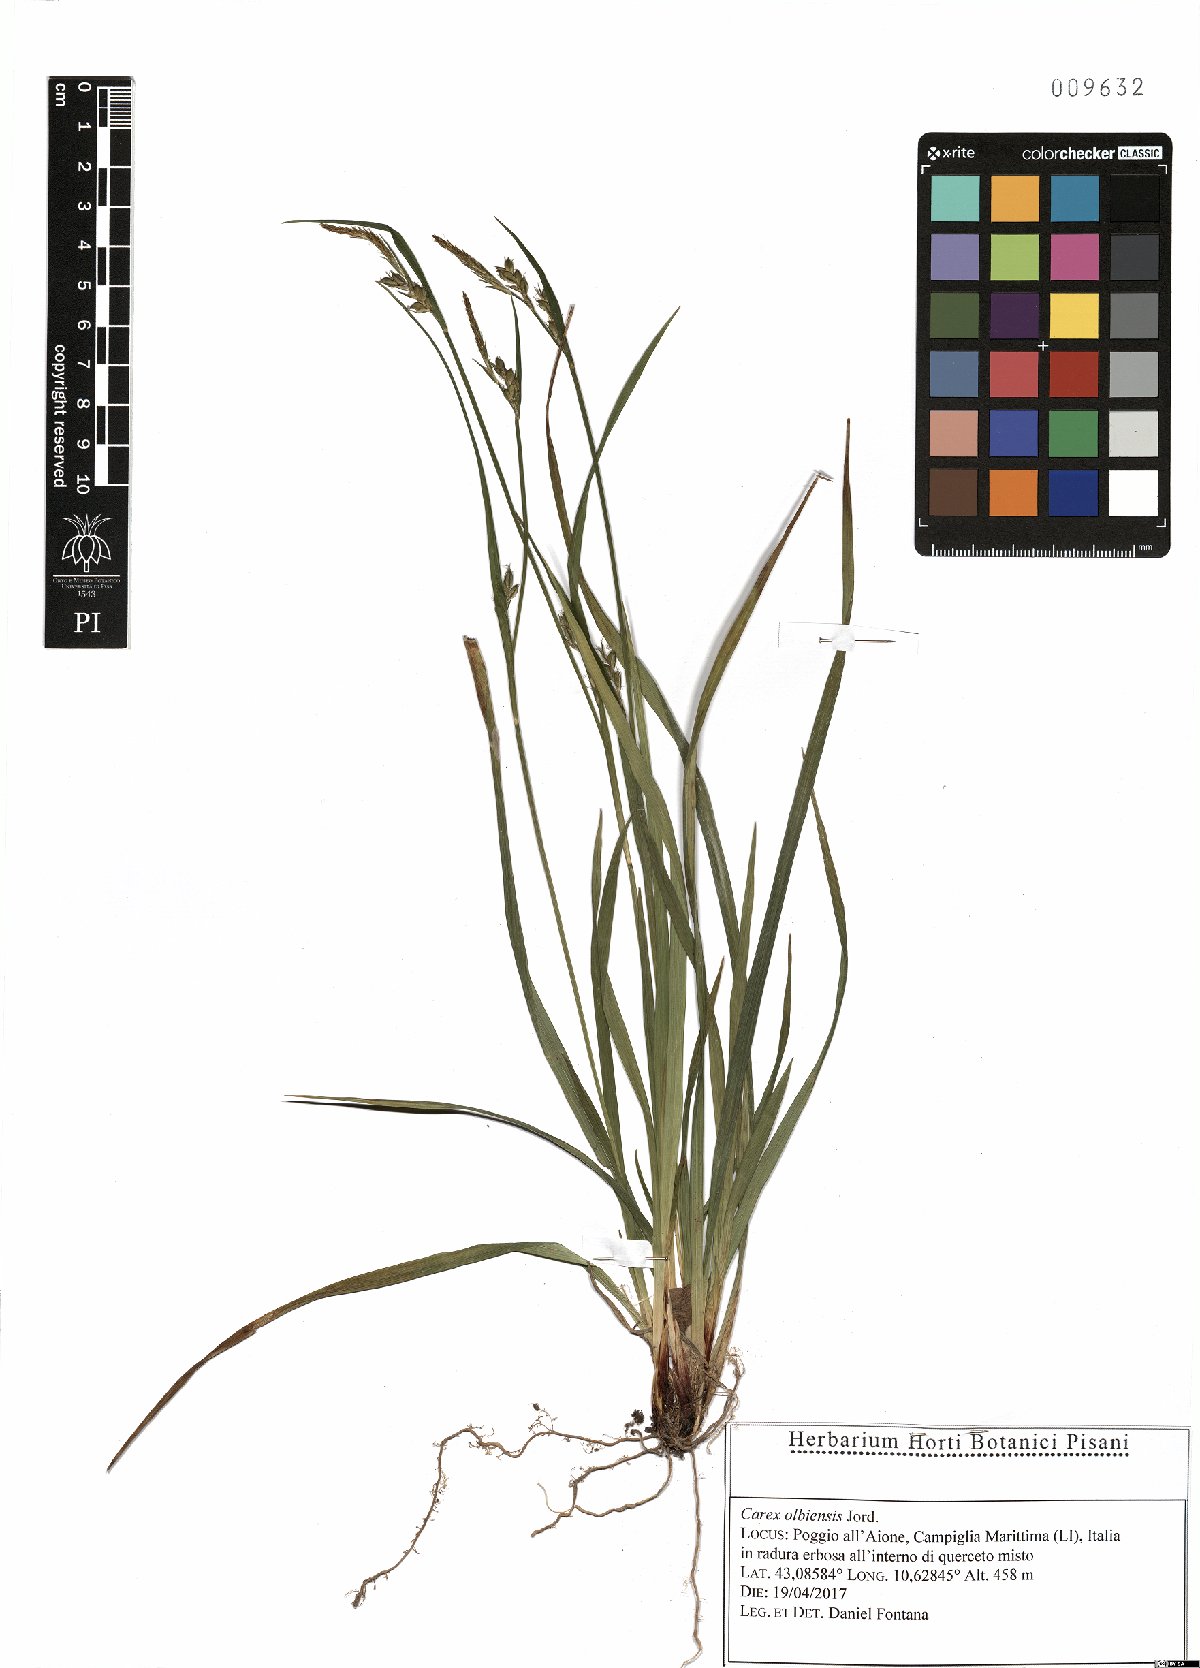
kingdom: Plantae
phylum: Tracheophyta
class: Liliopsida
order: Poales
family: Cyperaceae
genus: Carex
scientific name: Carex olbiensis
